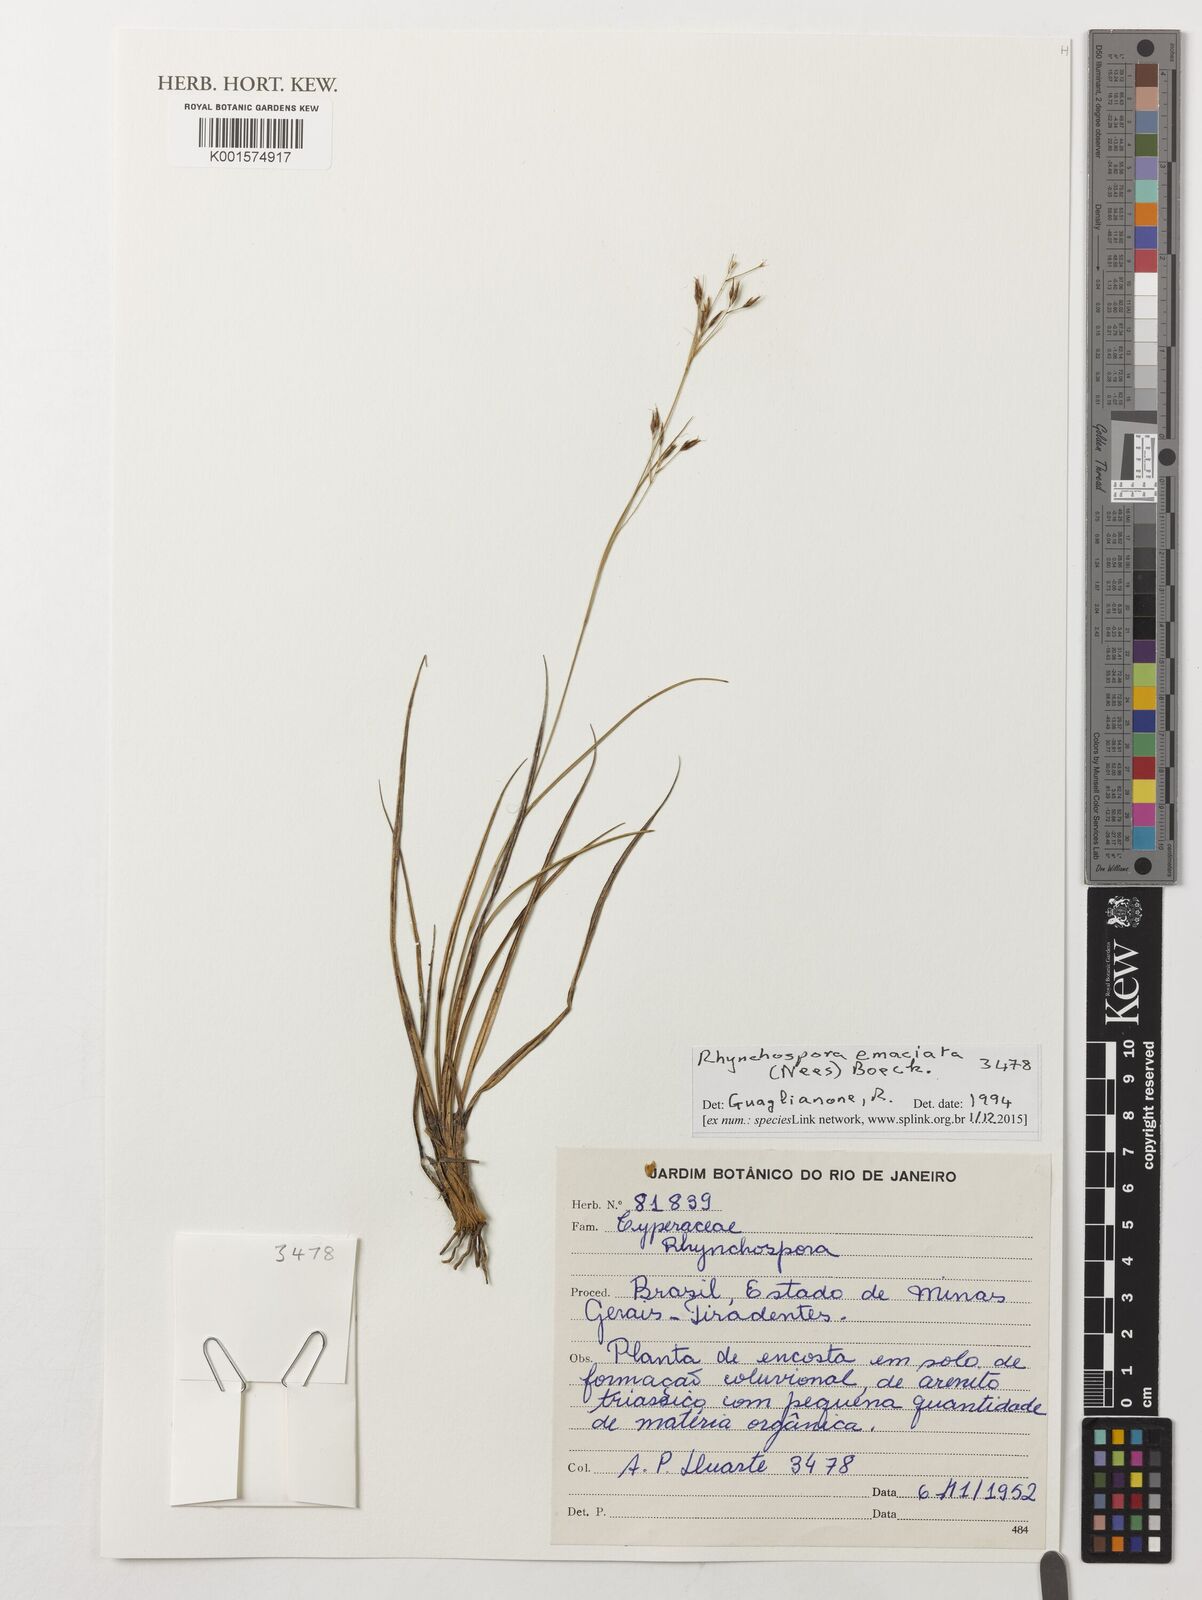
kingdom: Plantae
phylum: Tracheophyta
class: Liliopsida
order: Poales
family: Cyperaceae
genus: Rhynchospora
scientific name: Rhynchospora emaciata
